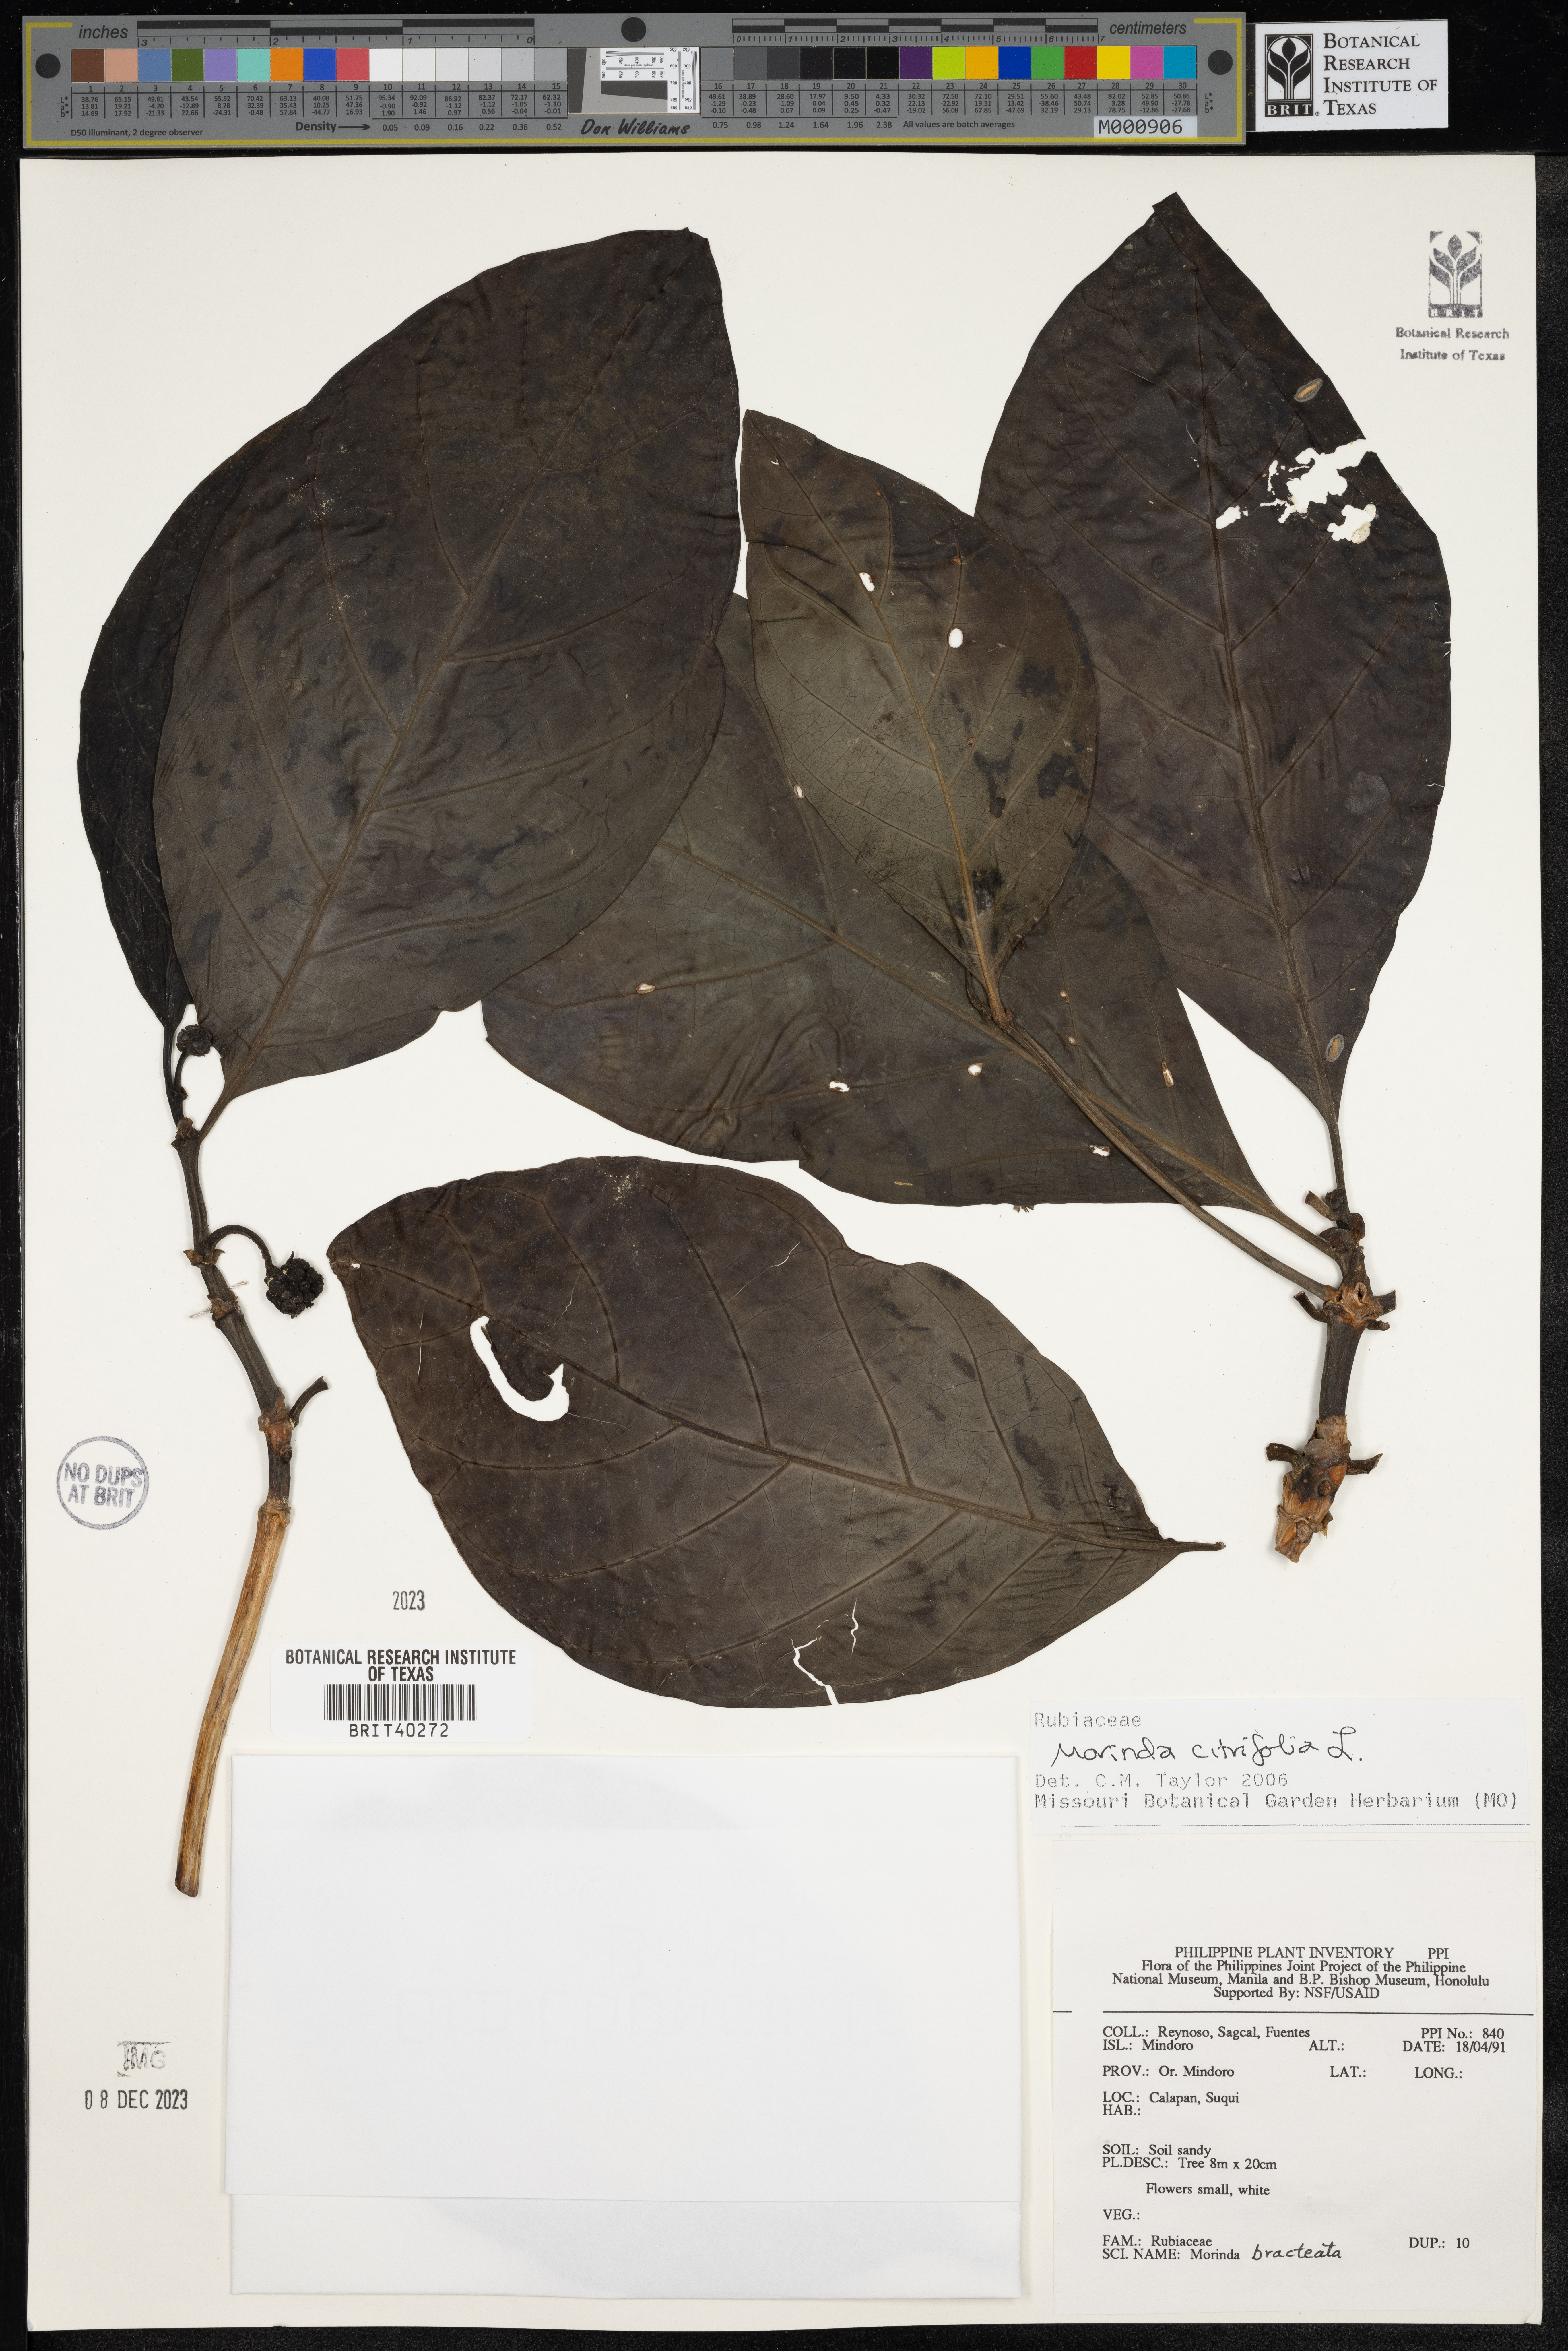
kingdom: Plantae
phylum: Tracheophyta
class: Magnoliopsida
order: Gentianales
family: Rubiaceae
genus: Morinda
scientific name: Morinda citrifolia
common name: Indian-mulberry
